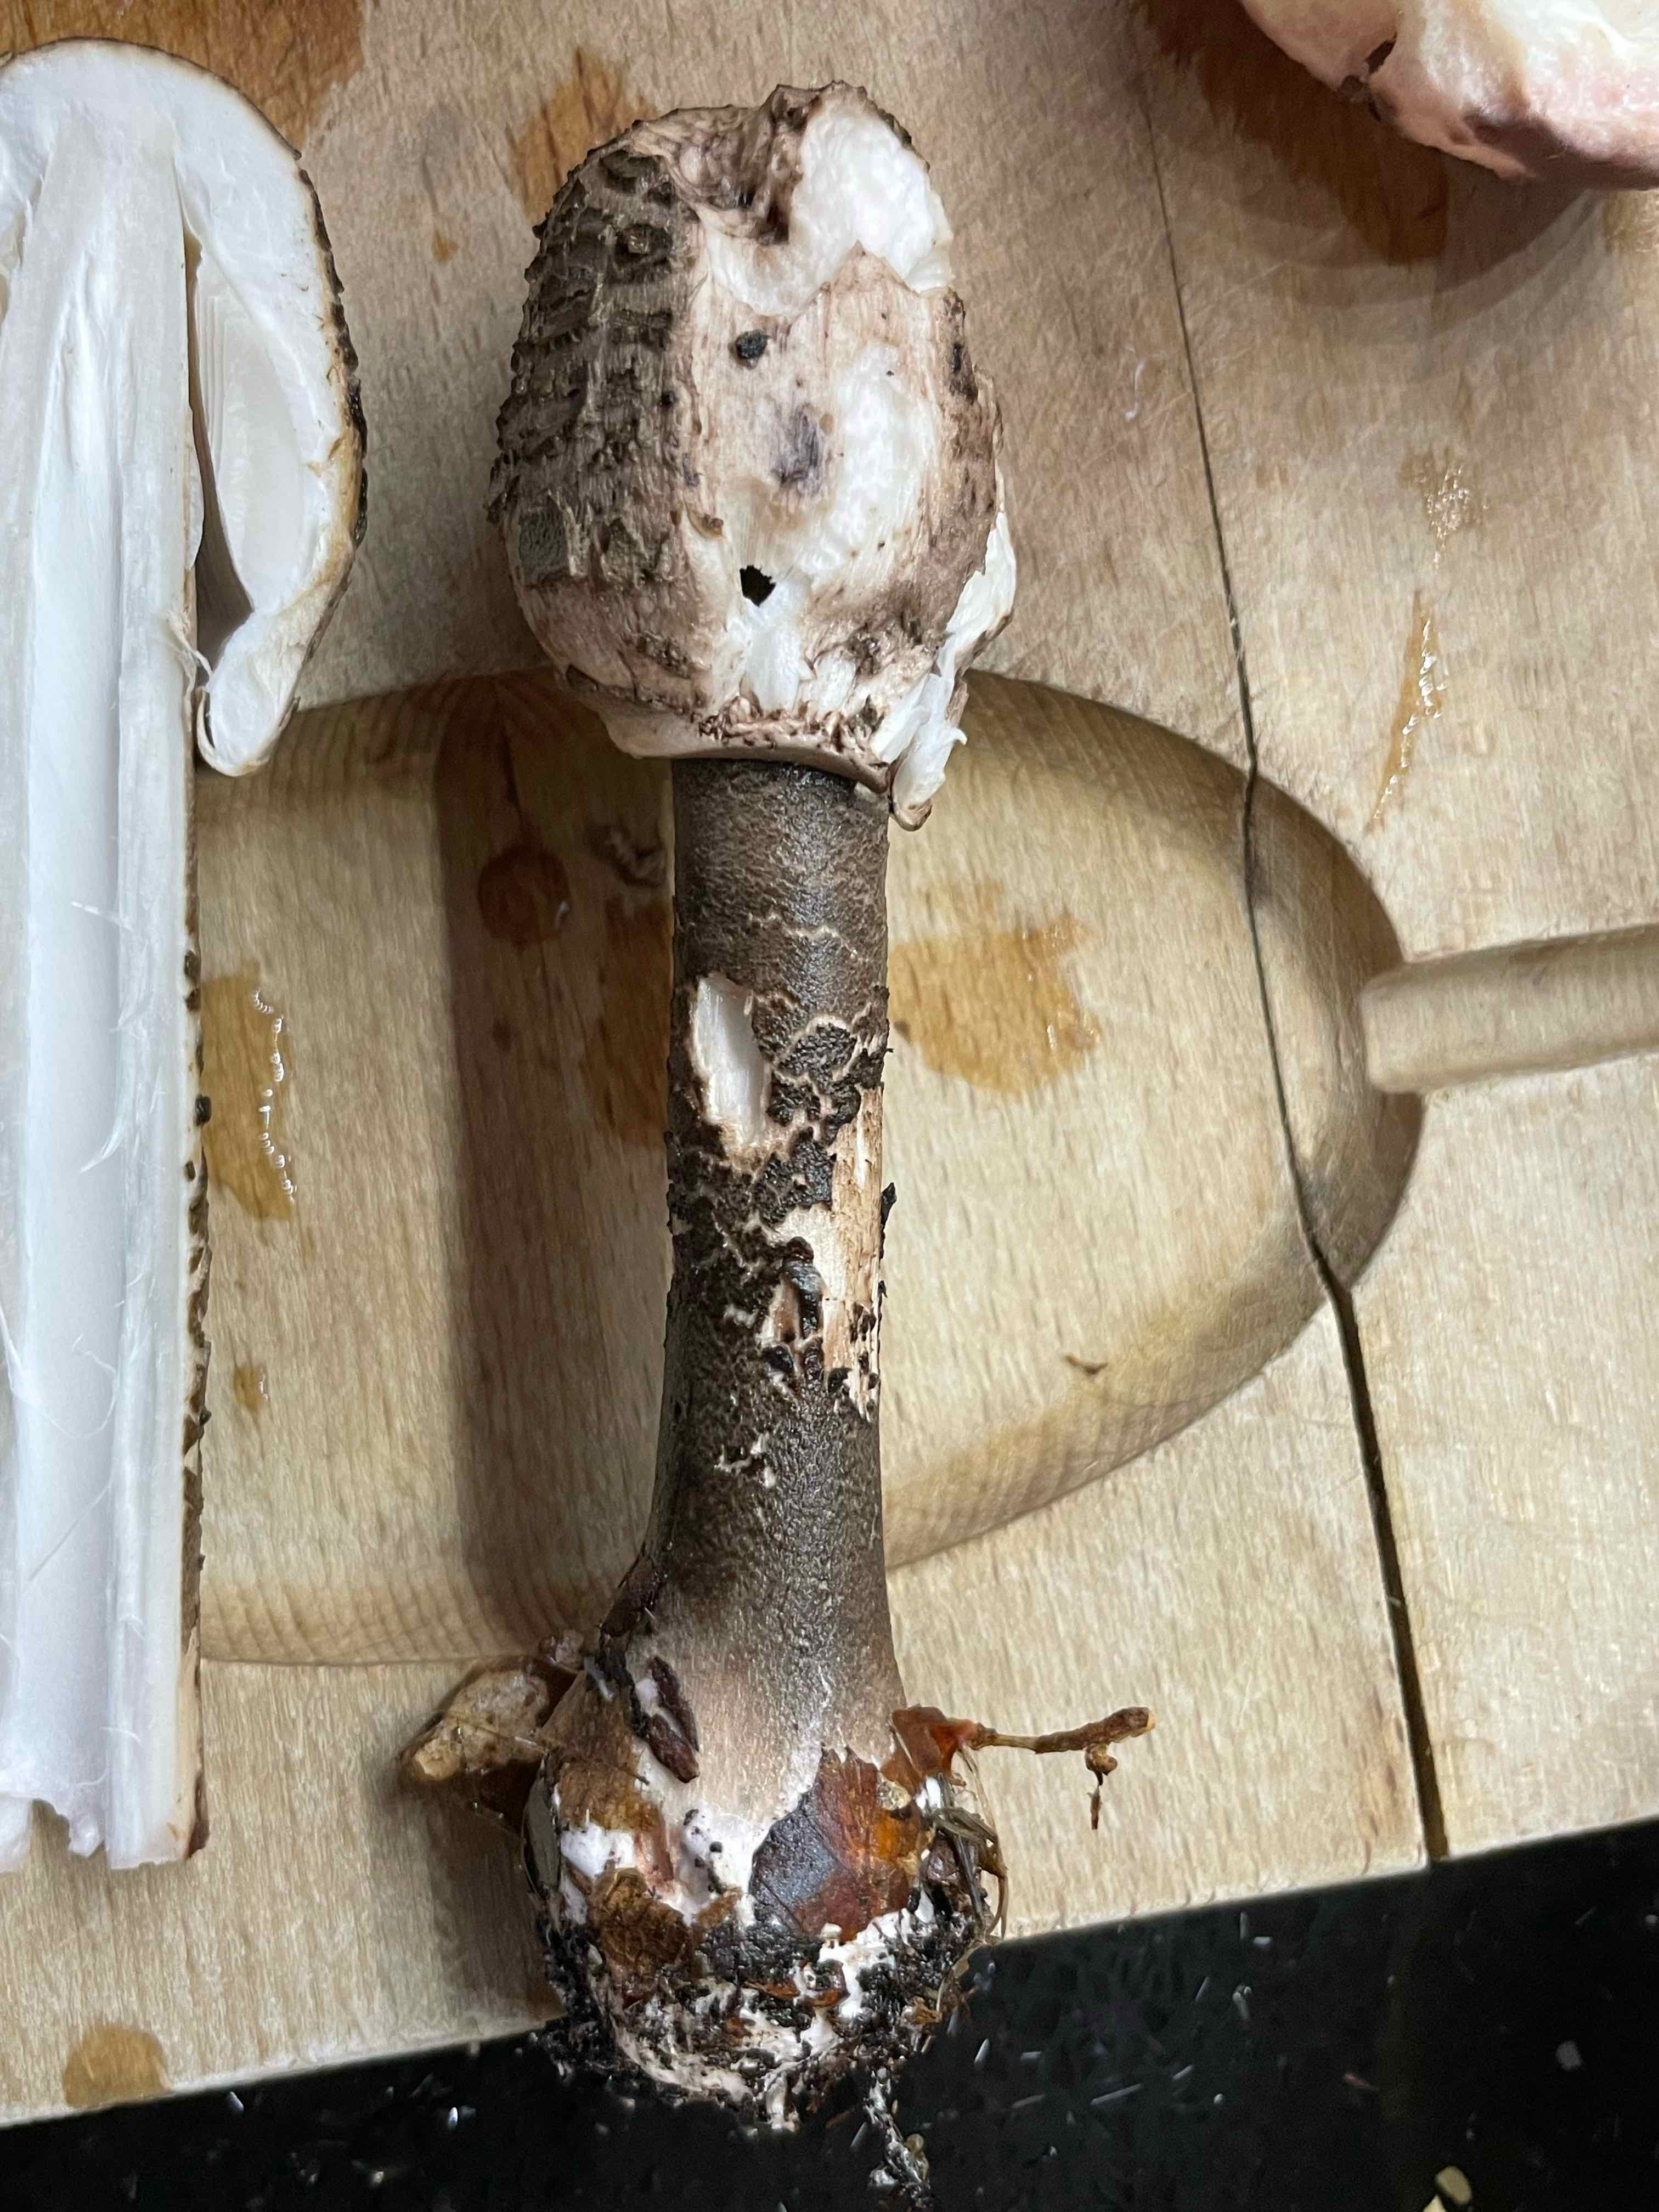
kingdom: Fungi
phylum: Basidiomycota
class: Agaricomycetes
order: Agaricales
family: Agaricaceae
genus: Macrolepiota
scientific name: Macrolepiota
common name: kæmpeparasolhat
